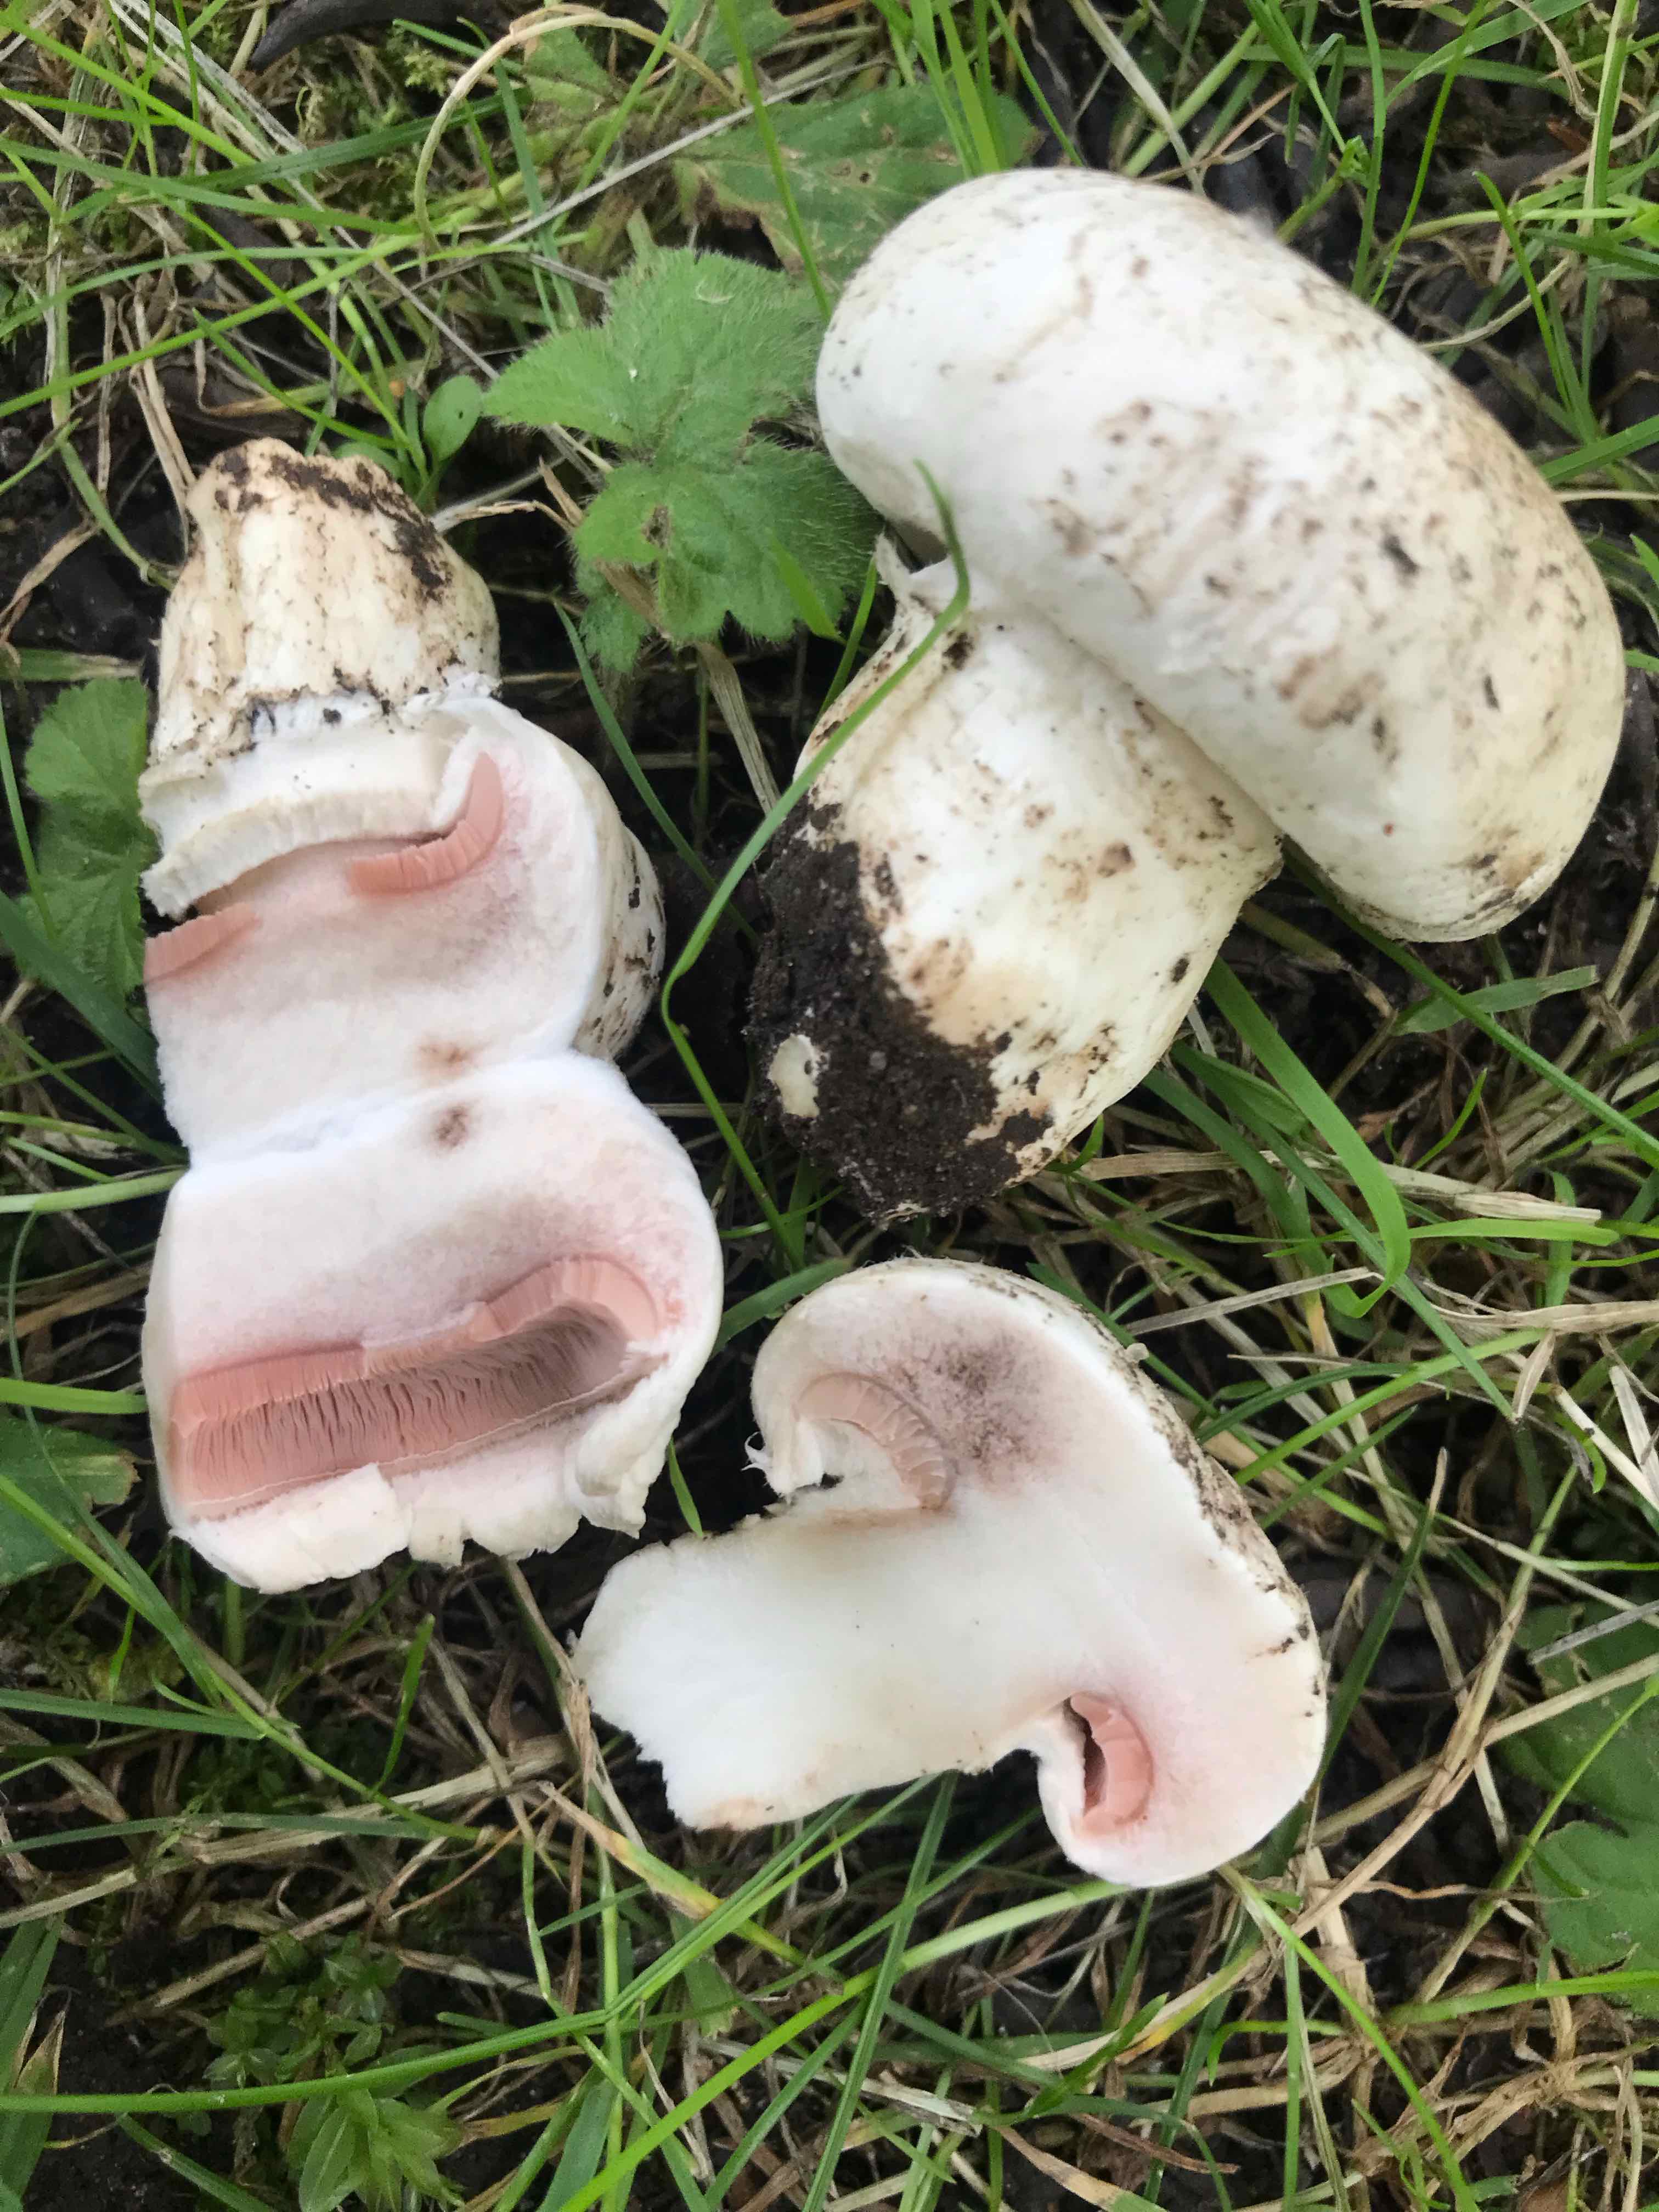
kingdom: Fungi
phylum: Basidiomycota
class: Agaricomycetes
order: Agaricales
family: Agaricaceae
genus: Agaricus
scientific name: Agaricus
